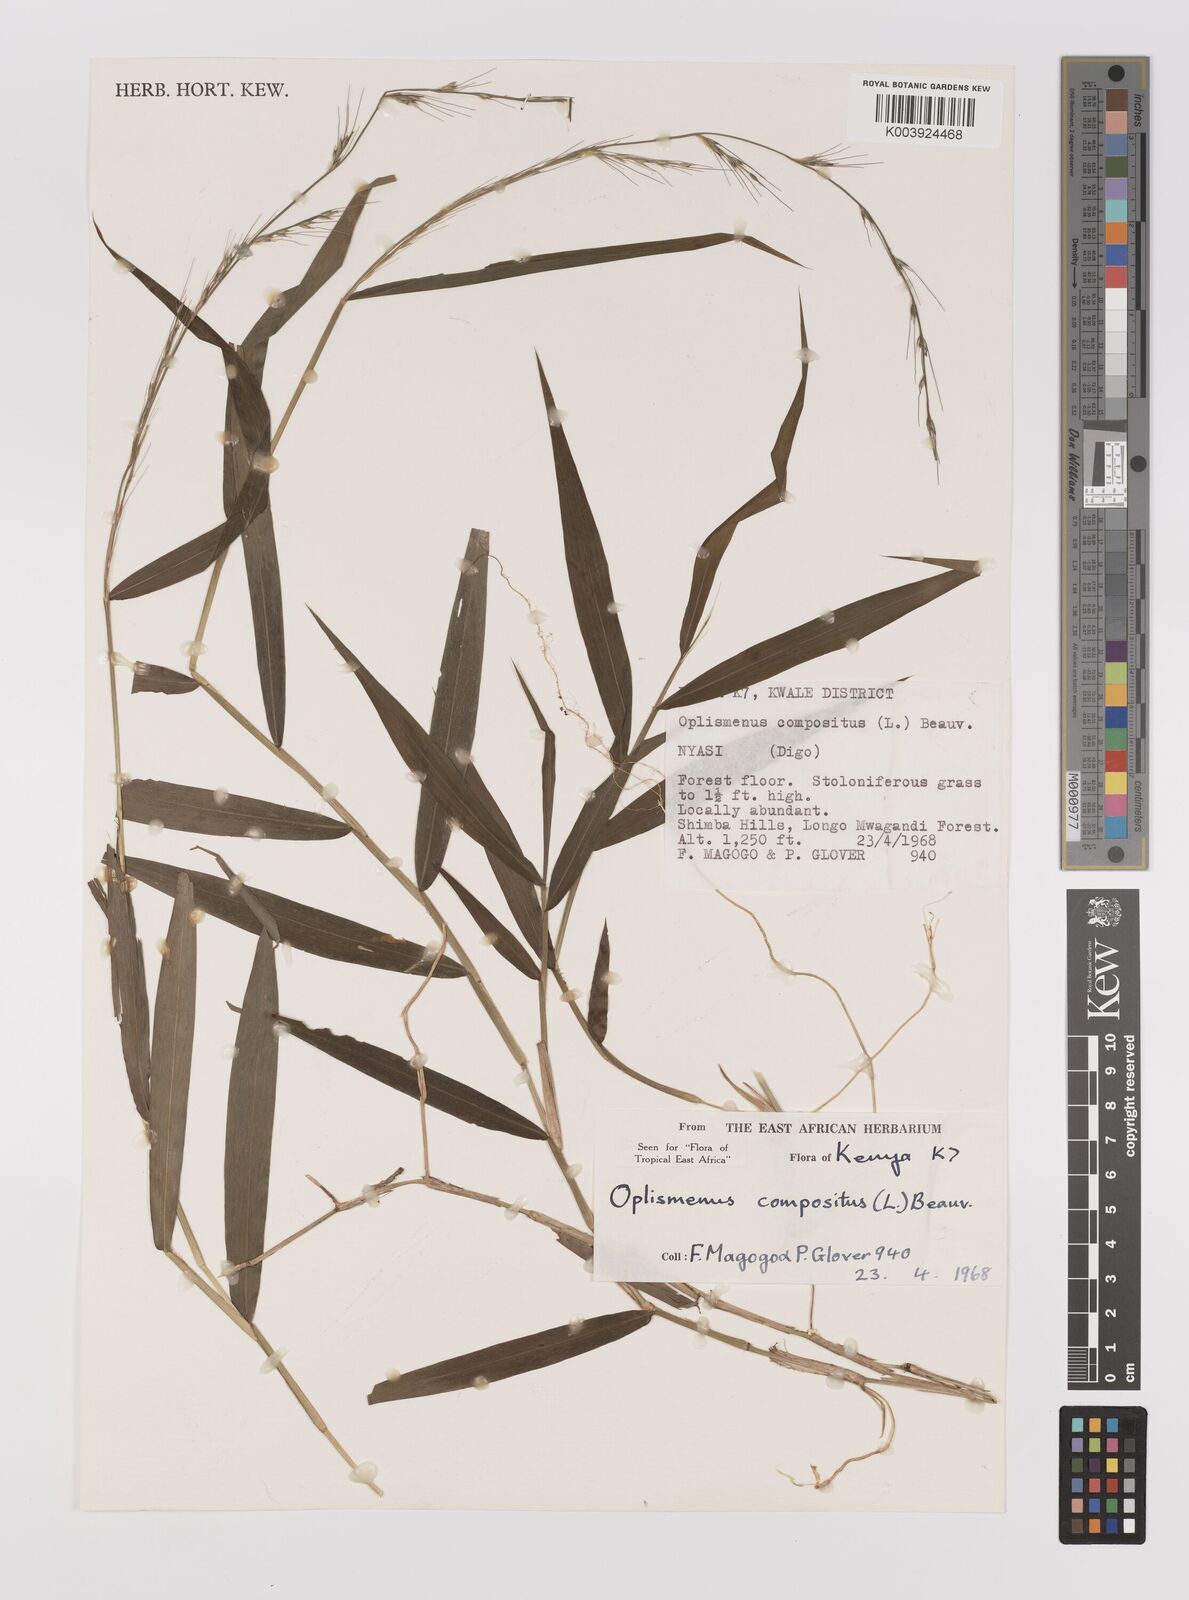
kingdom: Plantae
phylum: Tracheophyta
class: Liliopsida
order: Poales
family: Poaceae
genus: Oplismenus
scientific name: Oplismenus compositus
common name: Running mountain grass
